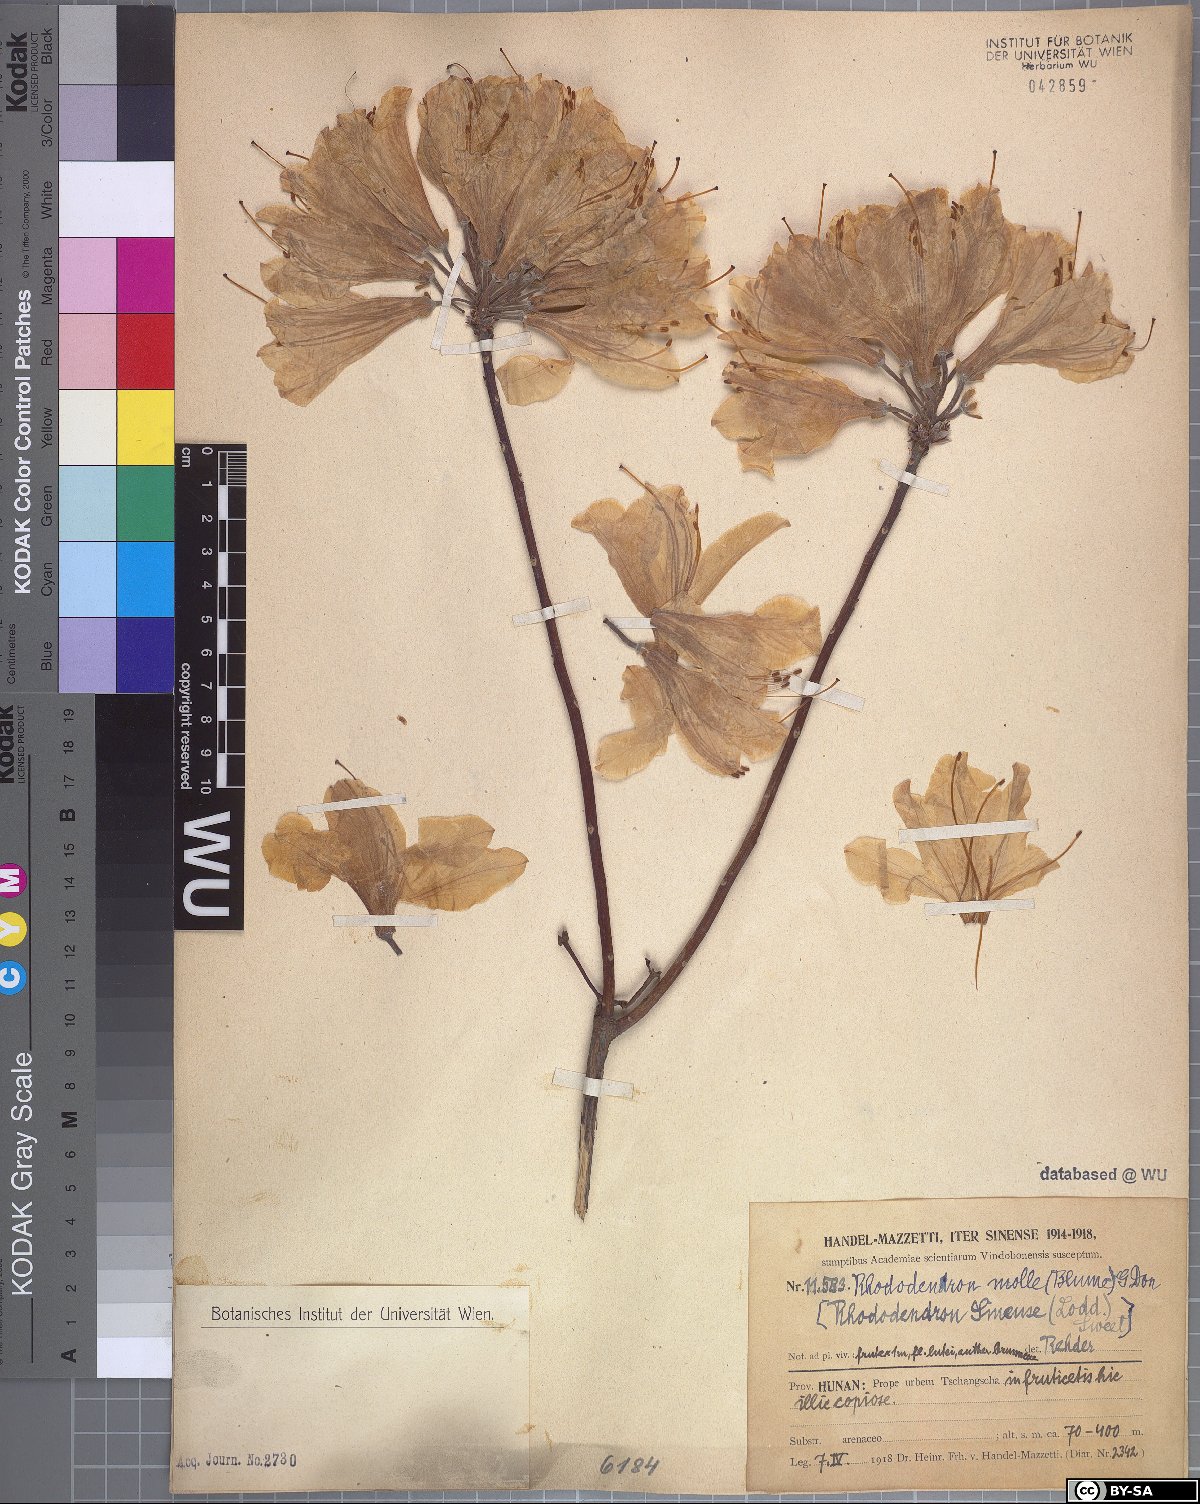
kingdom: Plantae
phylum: Tracheophyta
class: Magnoliopsida
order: Ericales
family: Ericaceae
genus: Rhododendron
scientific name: Rhododendron molle
